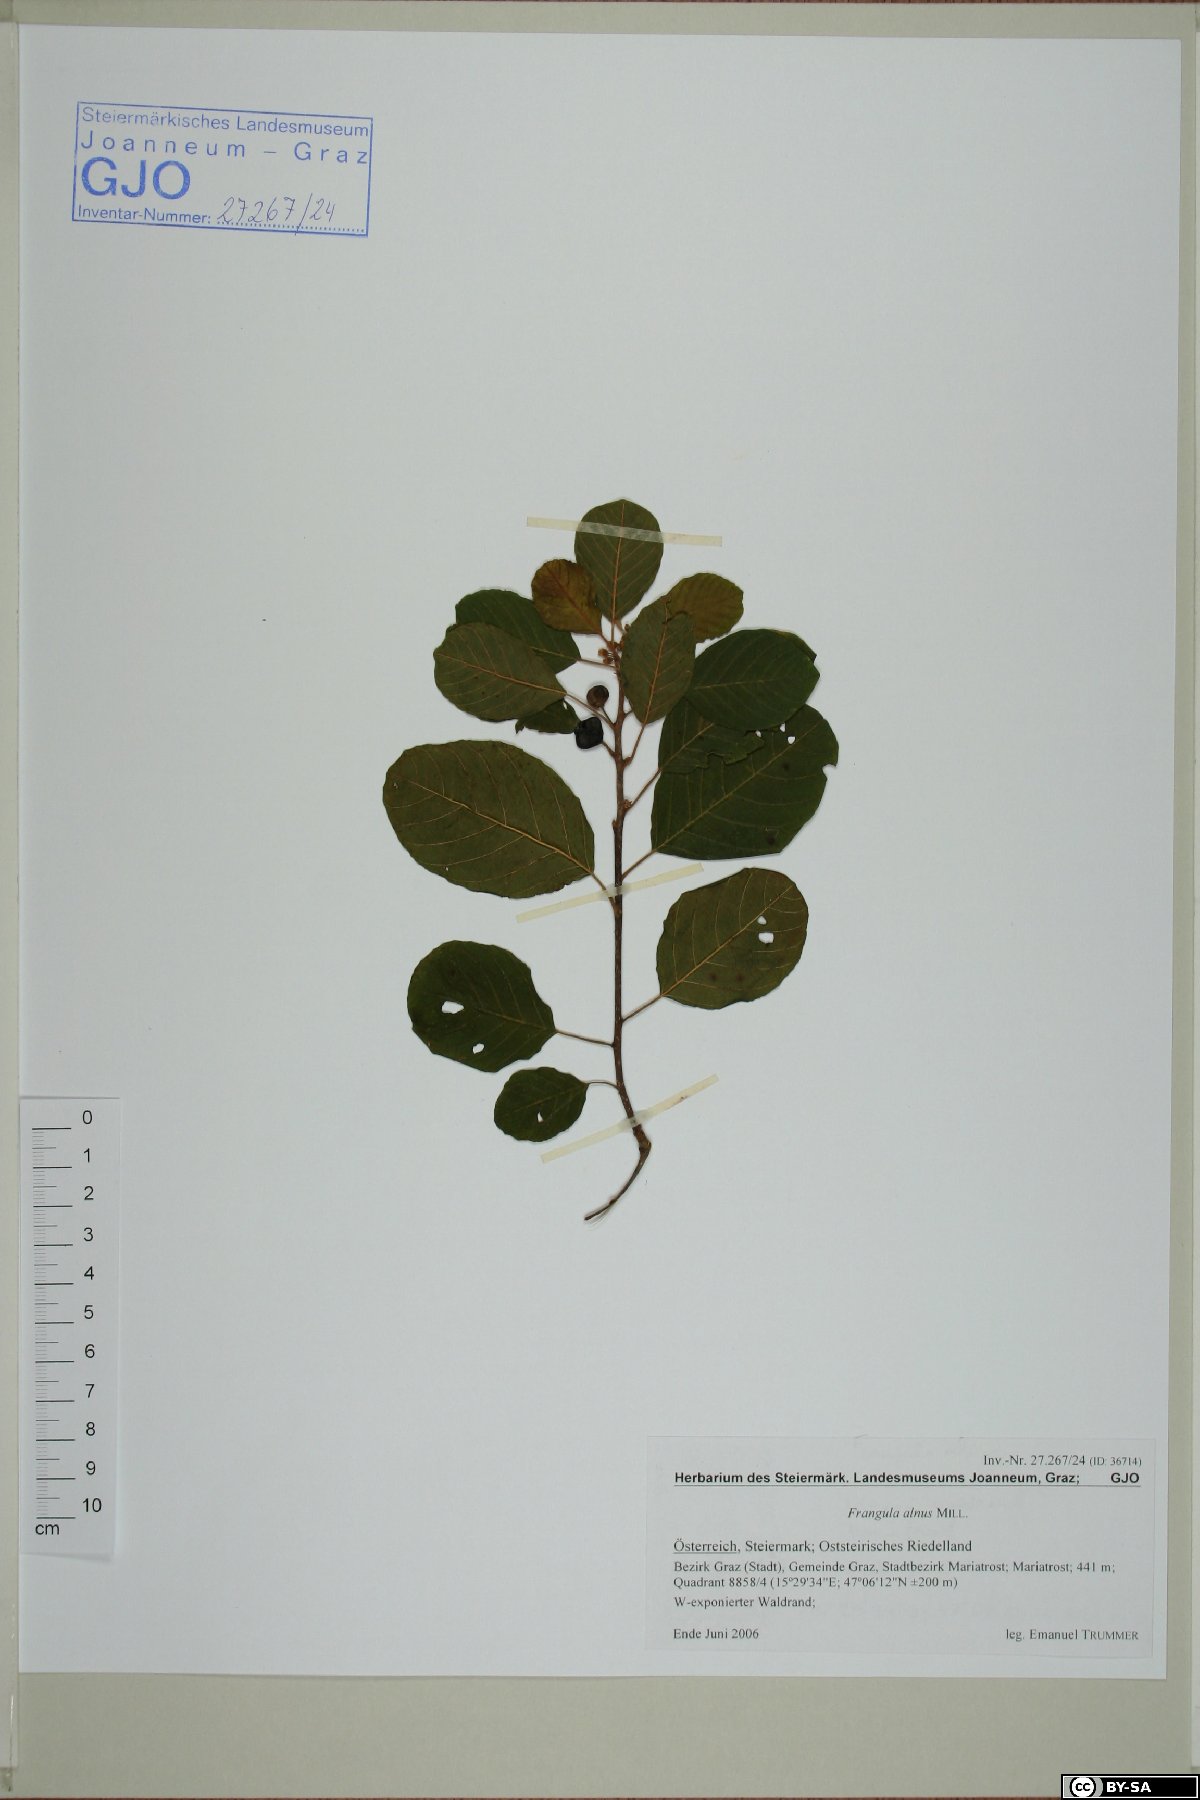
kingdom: Plantae
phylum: Tracheophyta
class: Magnoliopsida
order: Rosales
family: Rhamnaceae
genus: Frangula
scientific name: Frangula alnus
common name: Alder buckthorn
